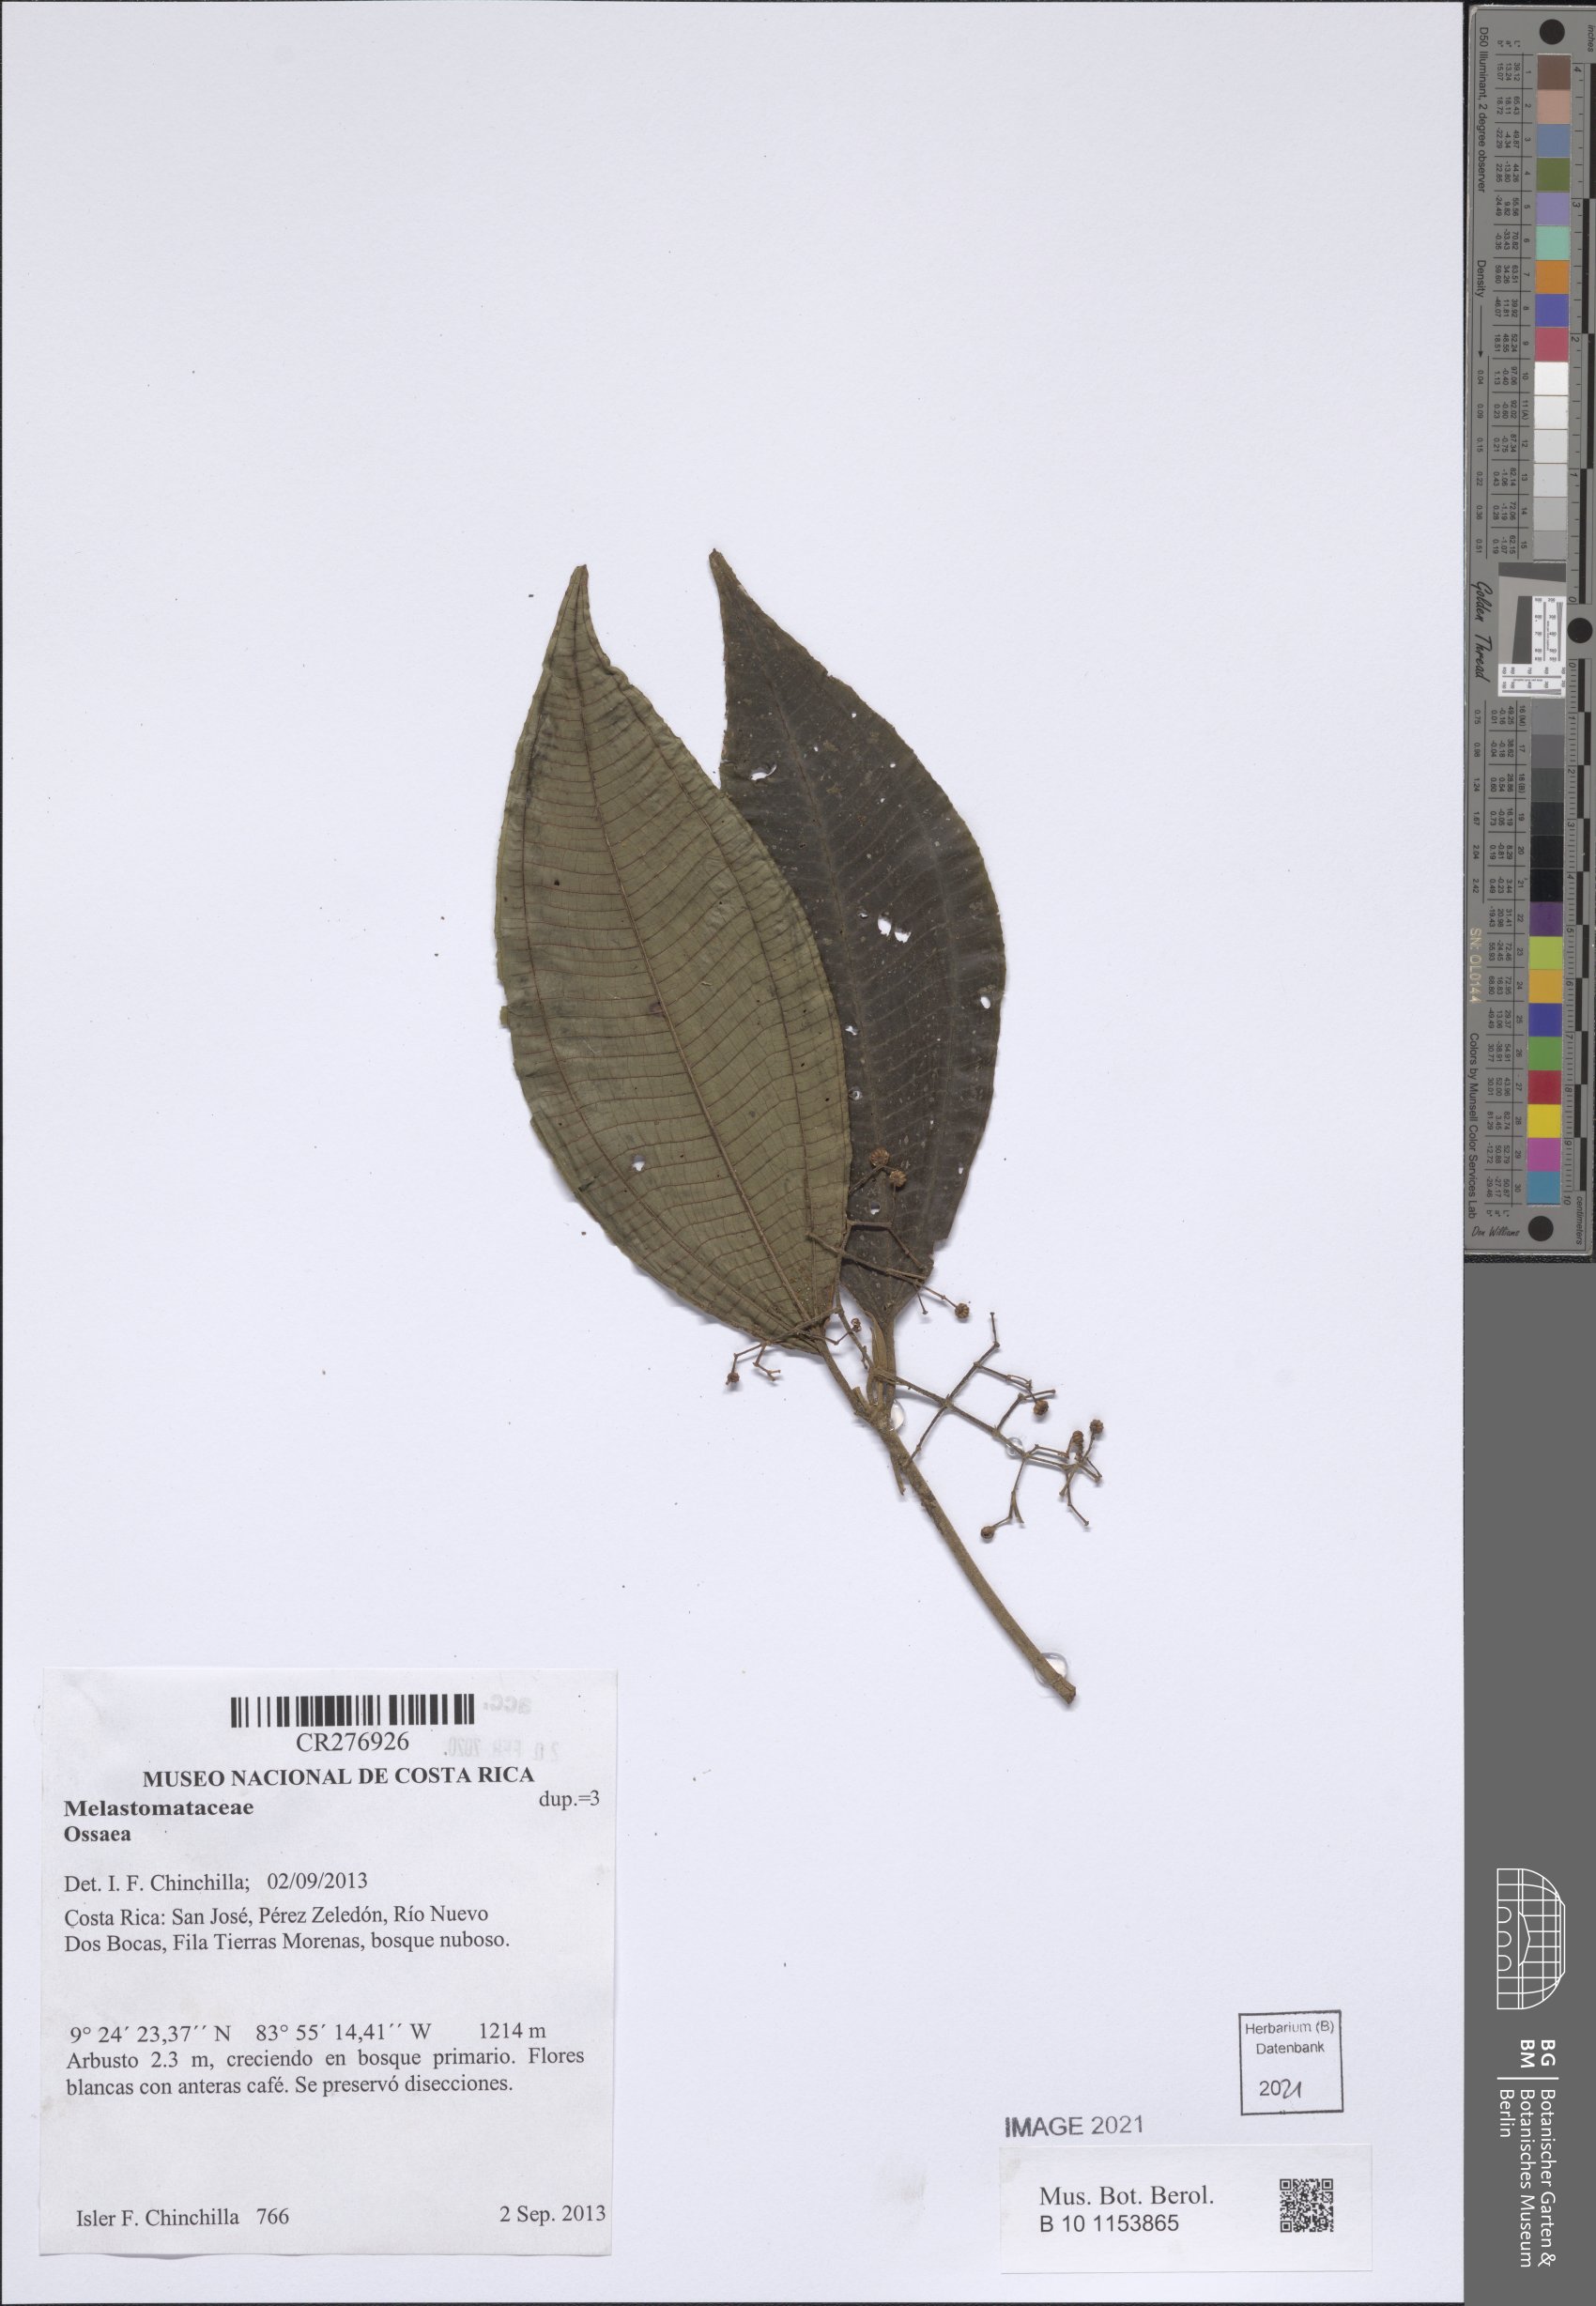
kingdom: Plantae
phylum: Tracheophyta
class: Magnoliopsida
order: Myrtales
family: Melastomataceae
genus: Ossaea
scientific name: Ossaea
